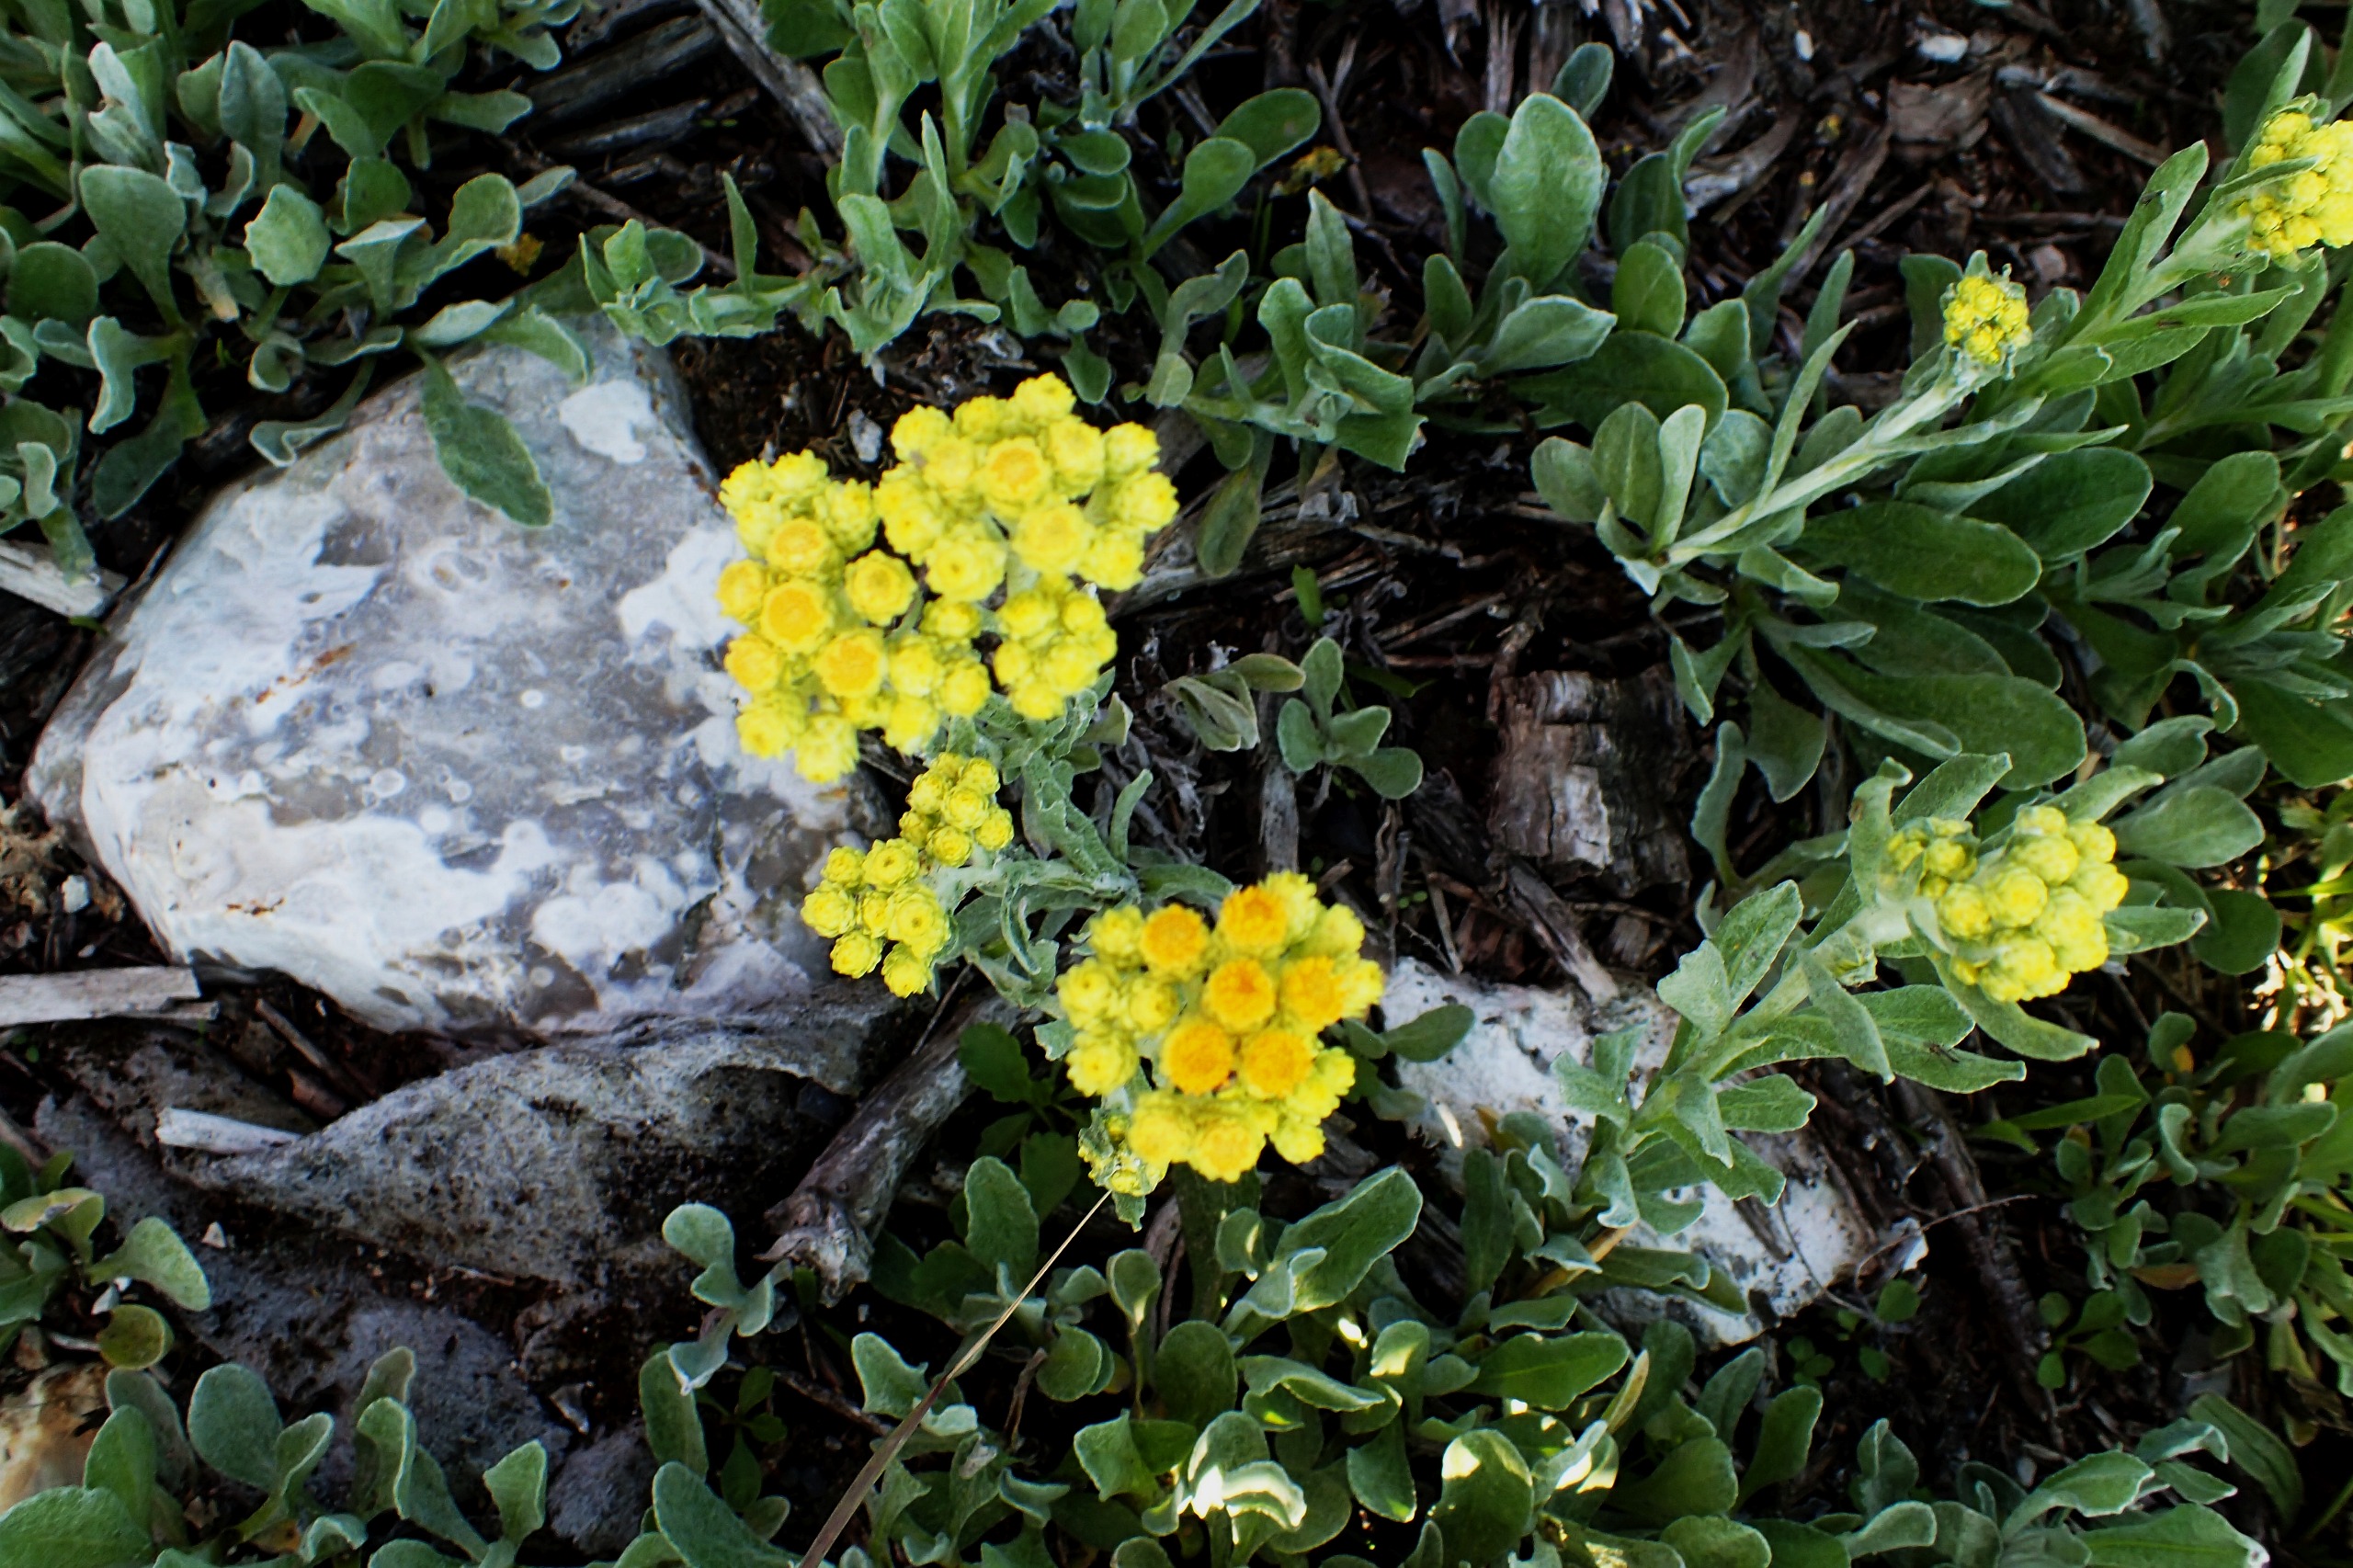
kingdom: Plantae
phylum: Tracheophyta
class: Magnoliopsida
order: Asterales
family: Asteraceae
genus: Helichrysum
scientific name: Helichrysum arenarium
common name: Gul evighedsblomst
